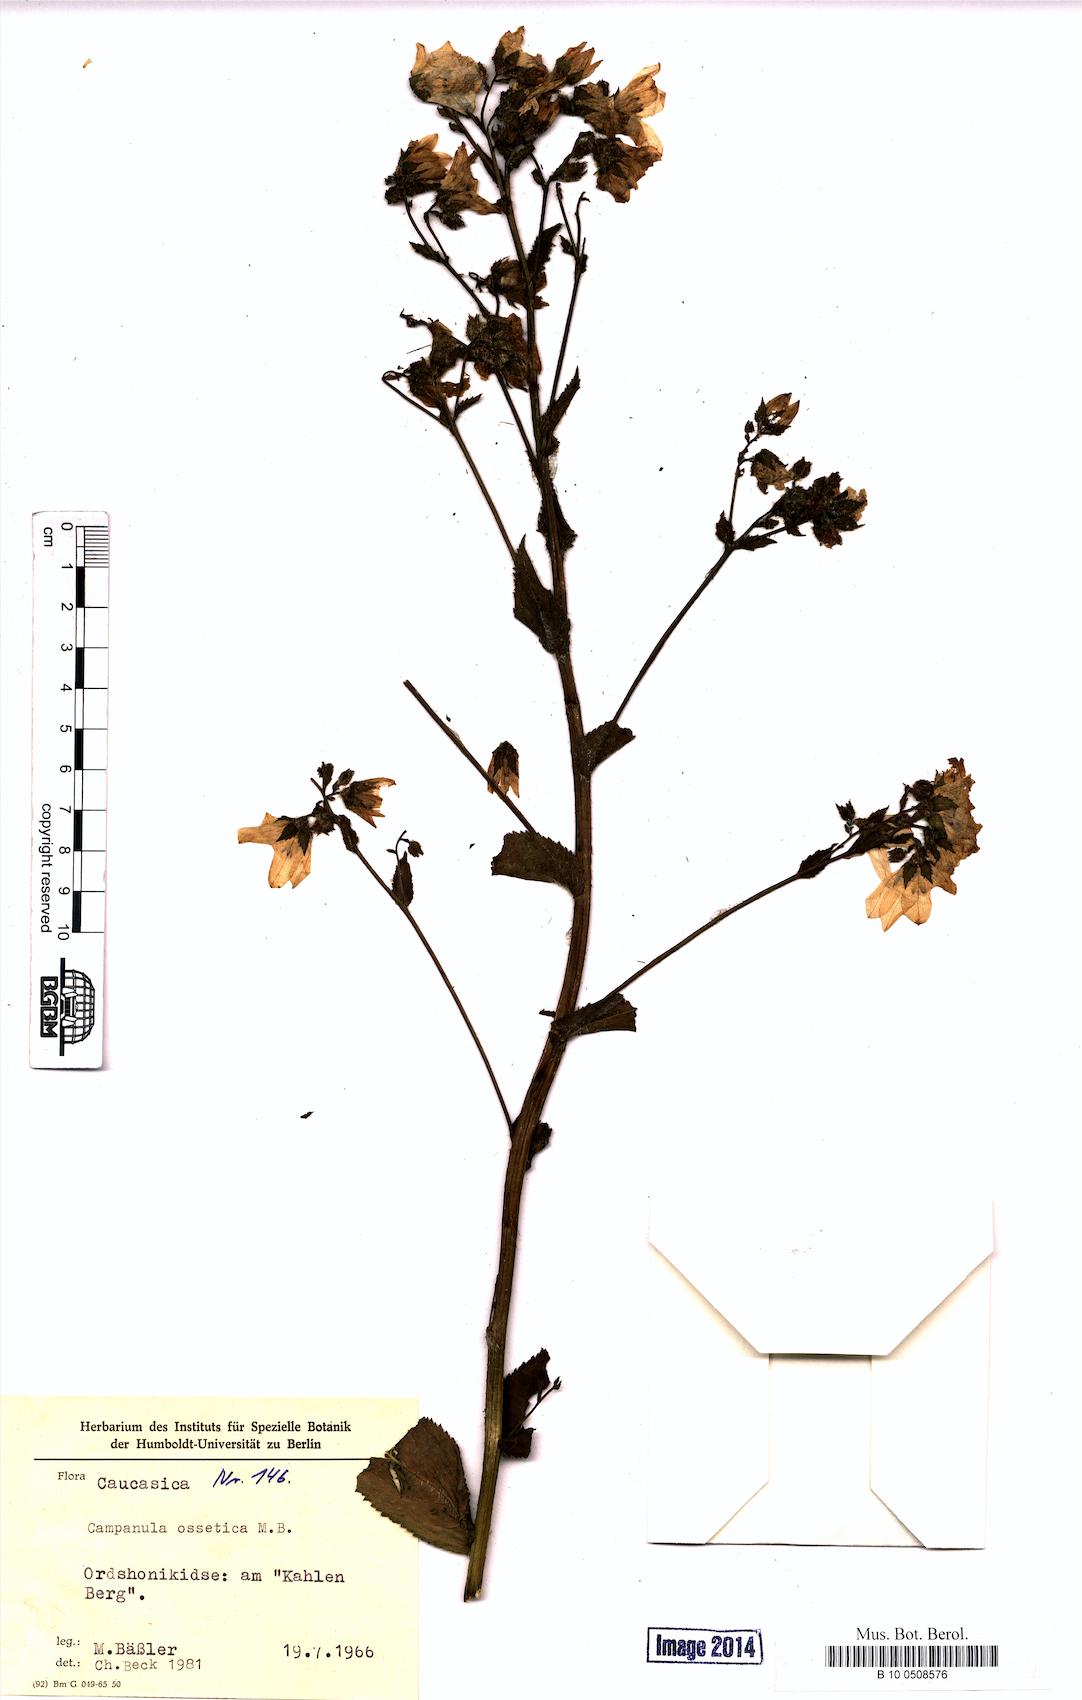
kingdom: Plantae
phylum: Tracheophyta
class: Magnoliopsida
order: Asterales
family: Campanulaceae
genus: Campanula
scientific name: Campanula ossetica
